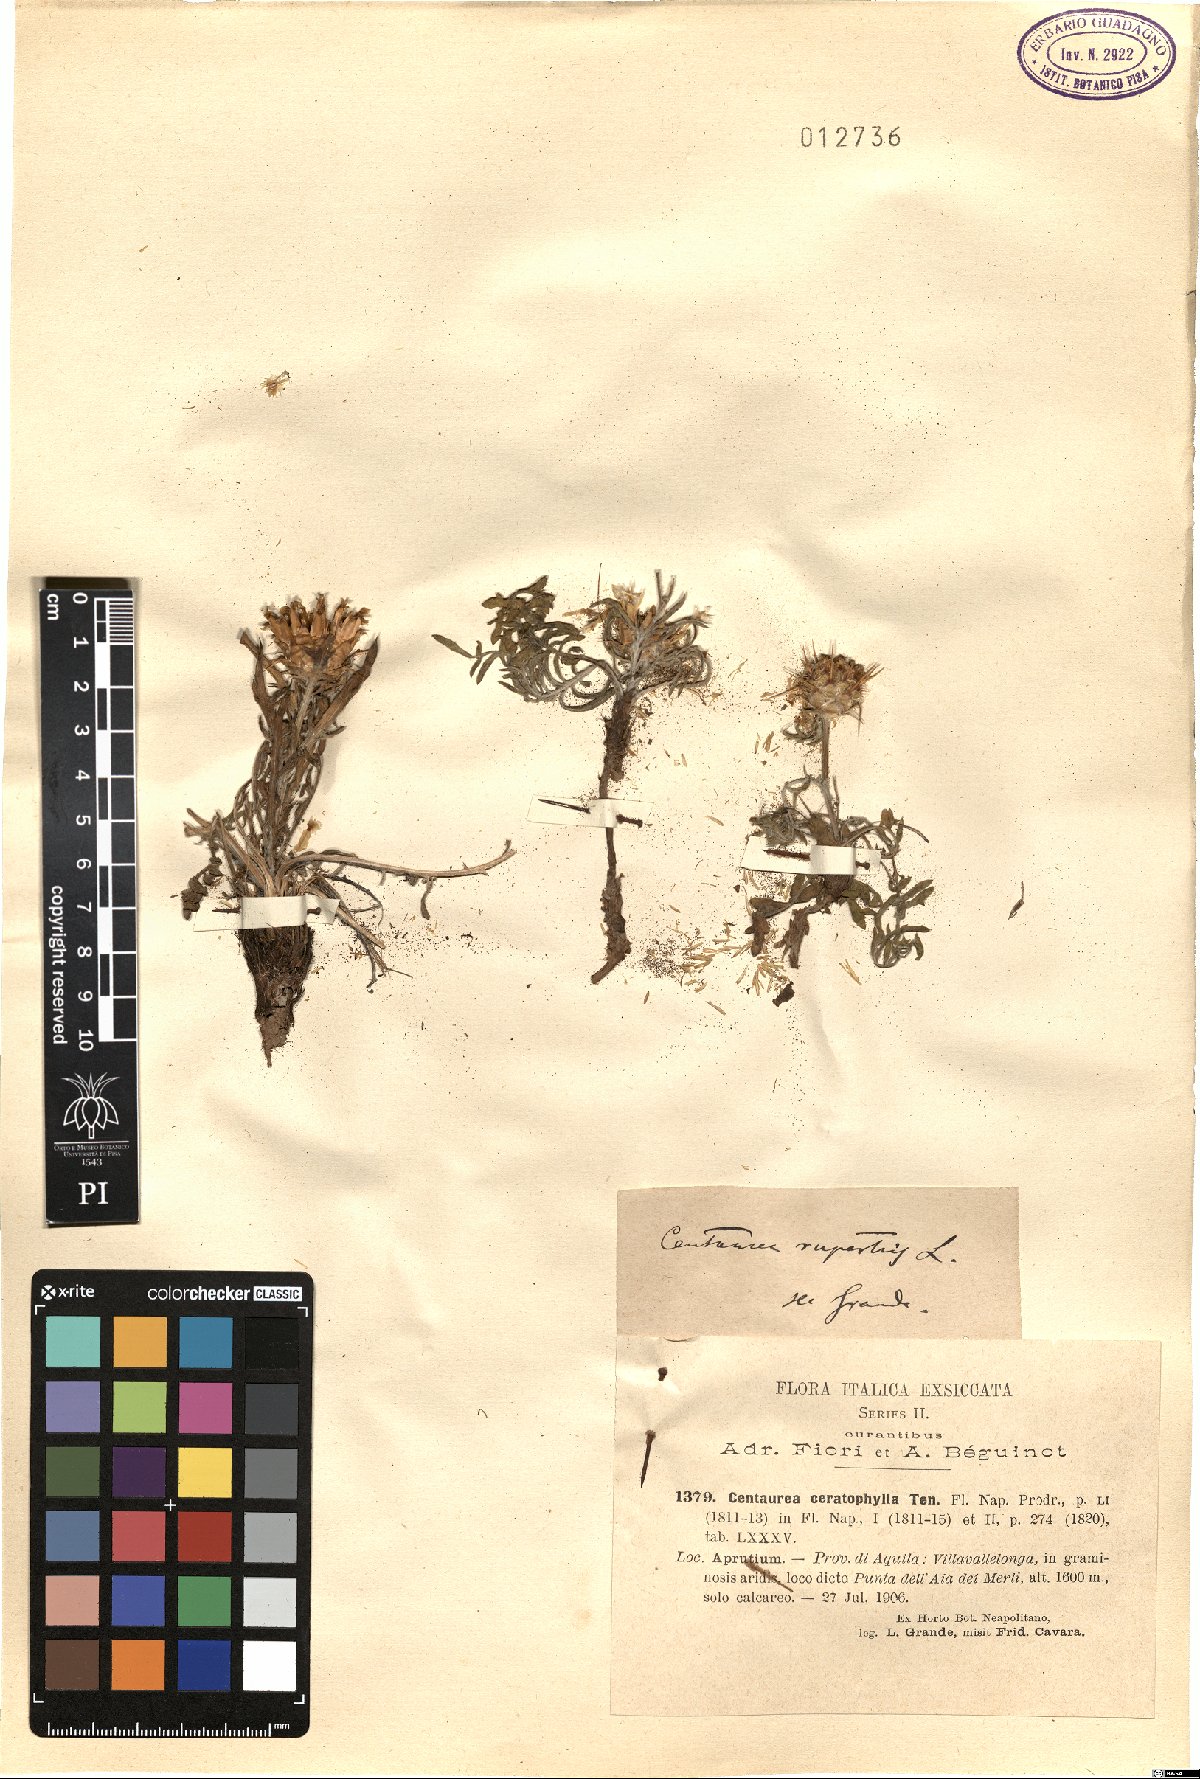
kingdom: Plantae
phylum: Tracheophyta
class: Magnoliopsida
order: Asterales
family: Asteraceae
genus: Centaurea
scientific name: Centaurea rupestris
